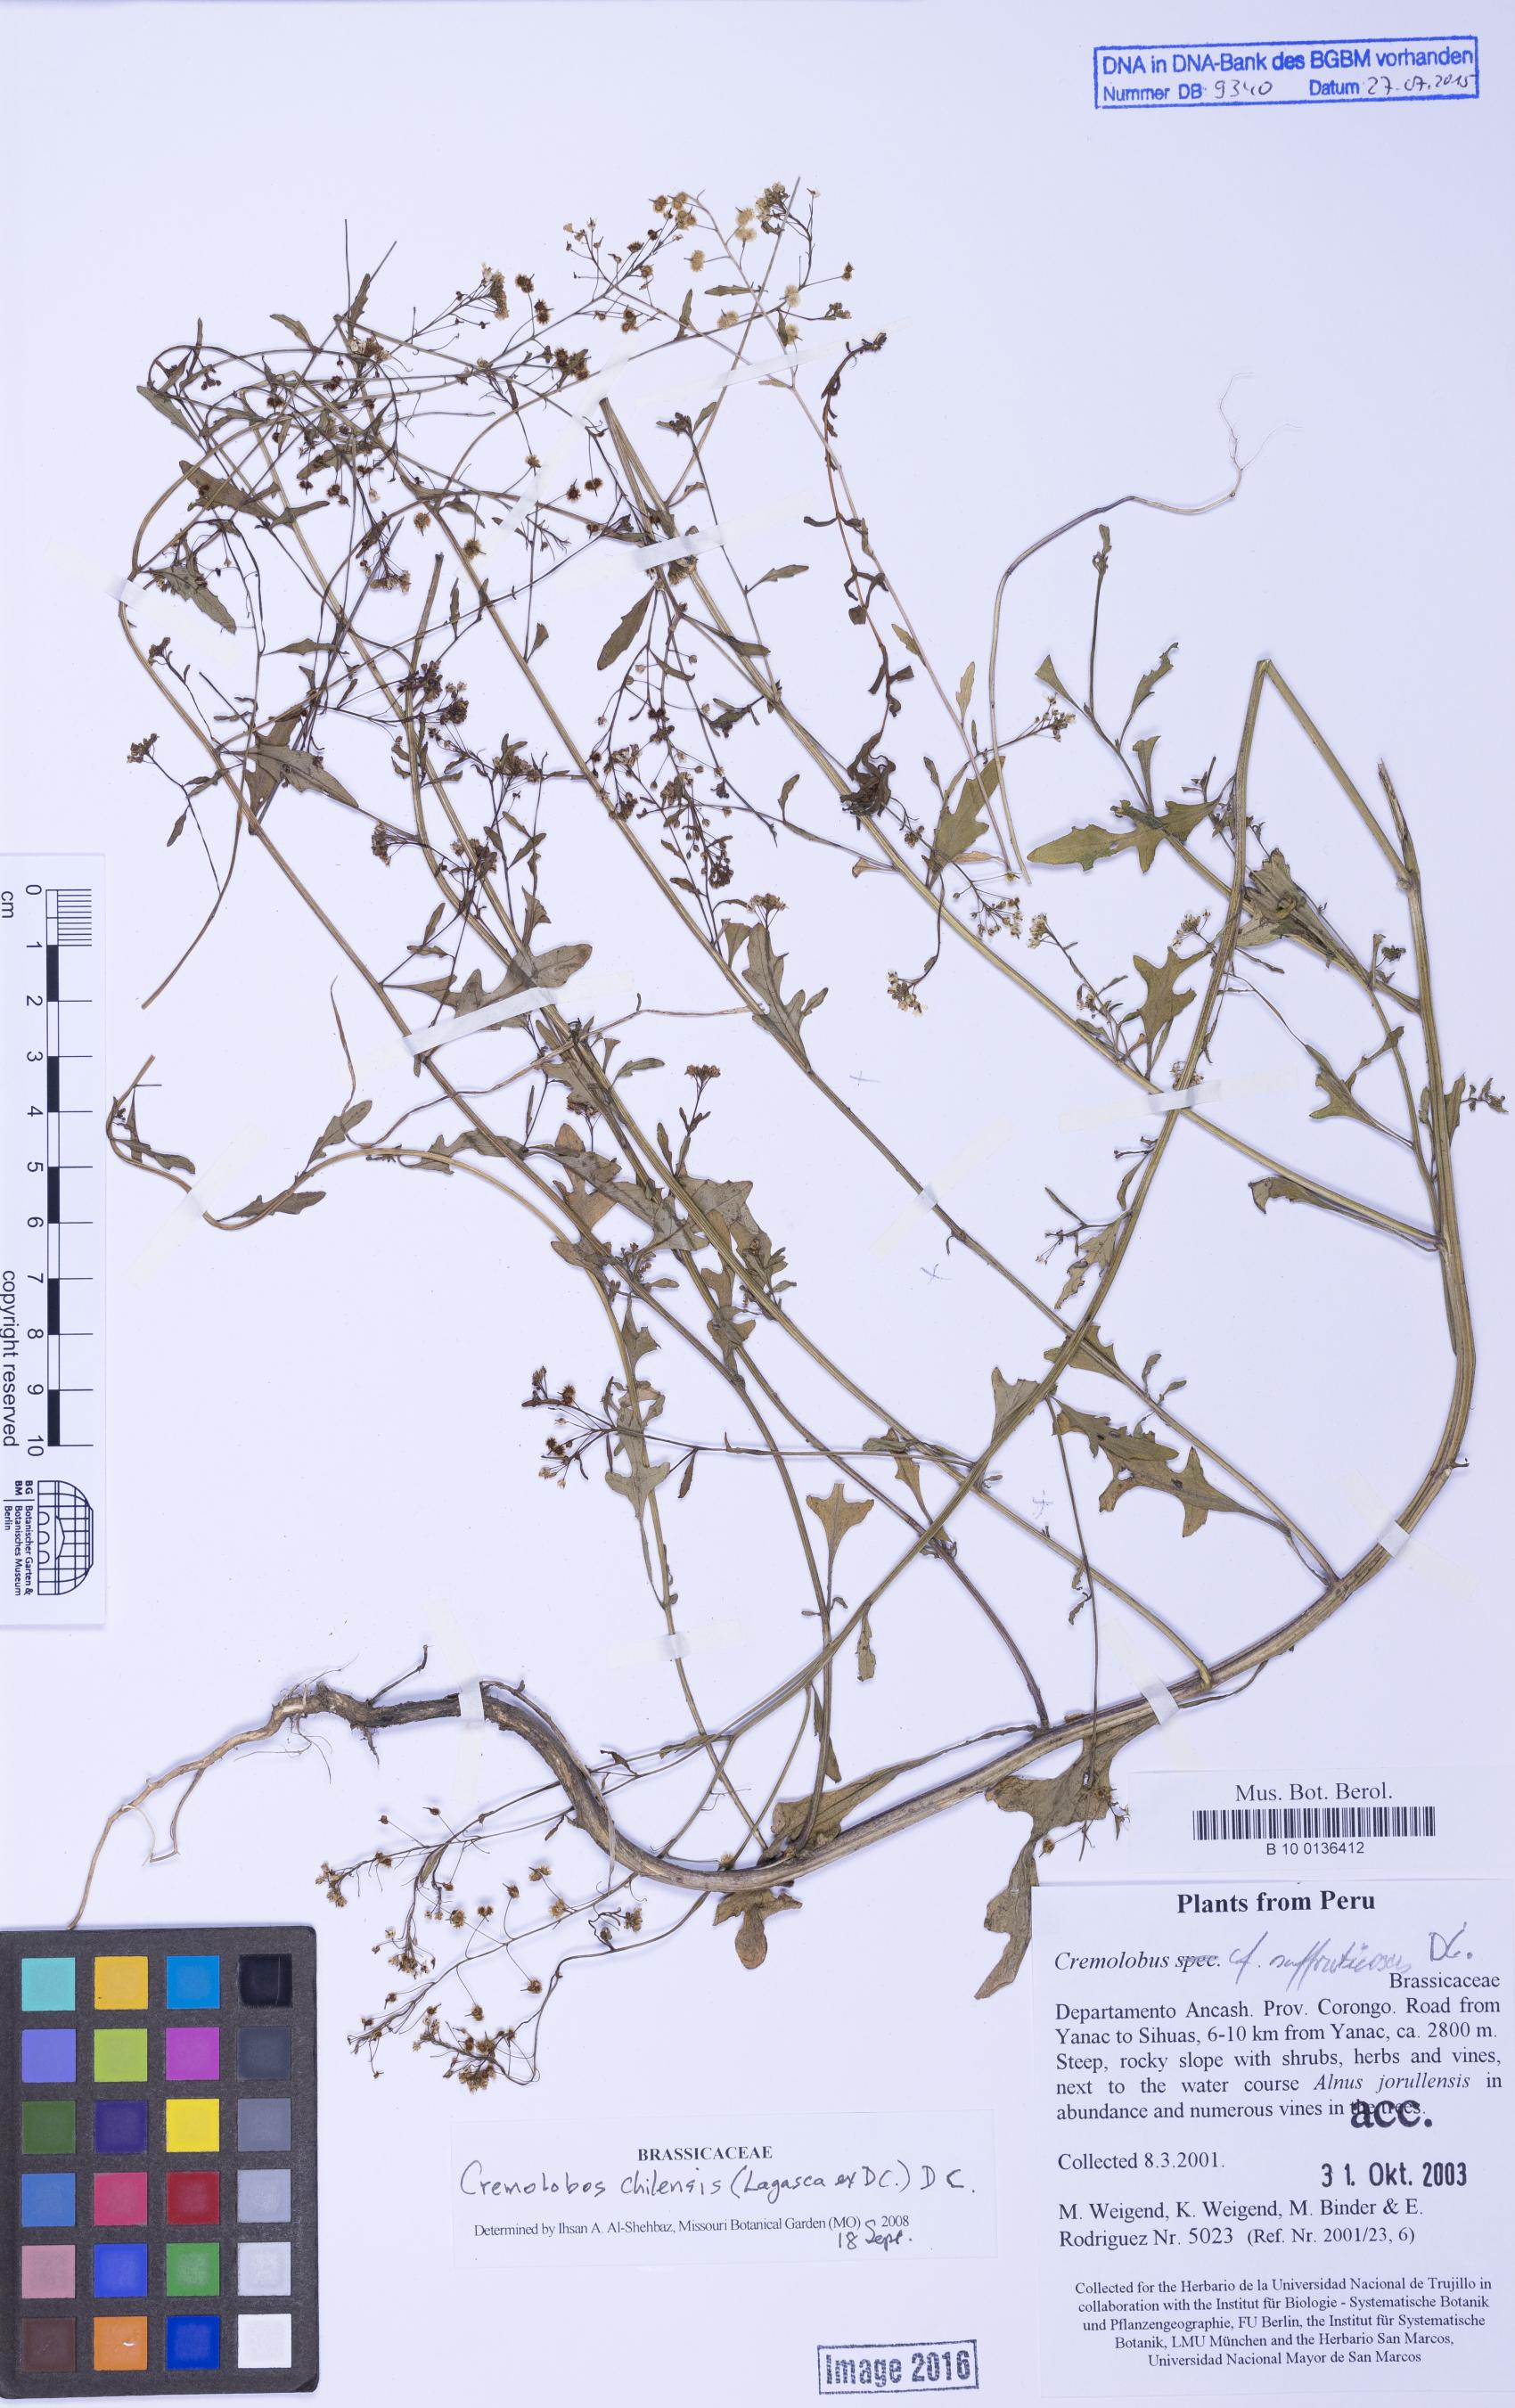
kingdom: Plantae
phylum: Tracheophyta
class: Magnoliopsida
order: Brassicales
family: Brassicaceae
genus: Cremolobus
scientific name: Cremolobus chilensis
